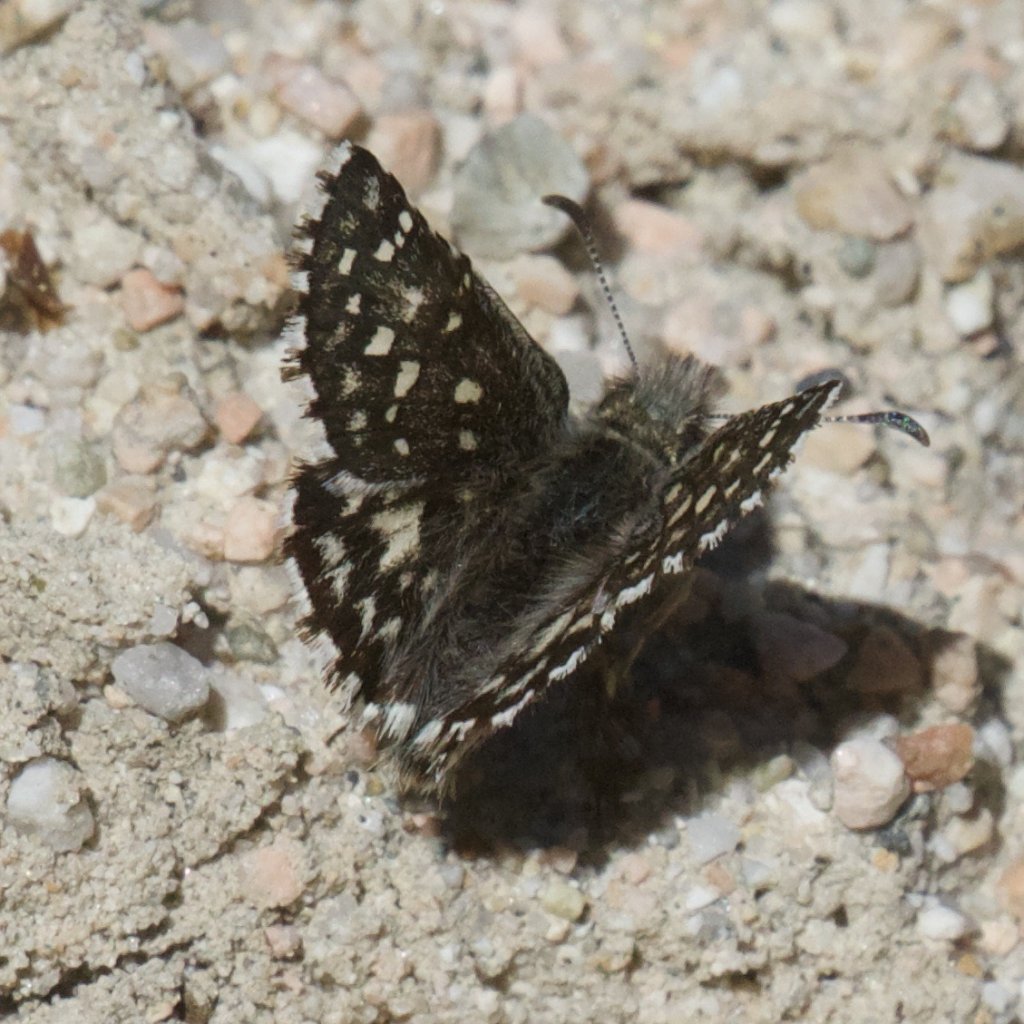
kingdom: Animalia
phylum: Arthropoda
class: Insecta
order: Lepidoptera
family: Hesperiidae
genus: Pyrgus
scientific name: Pyrgus ruralis
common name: Two-banded Checkered-Skipper
